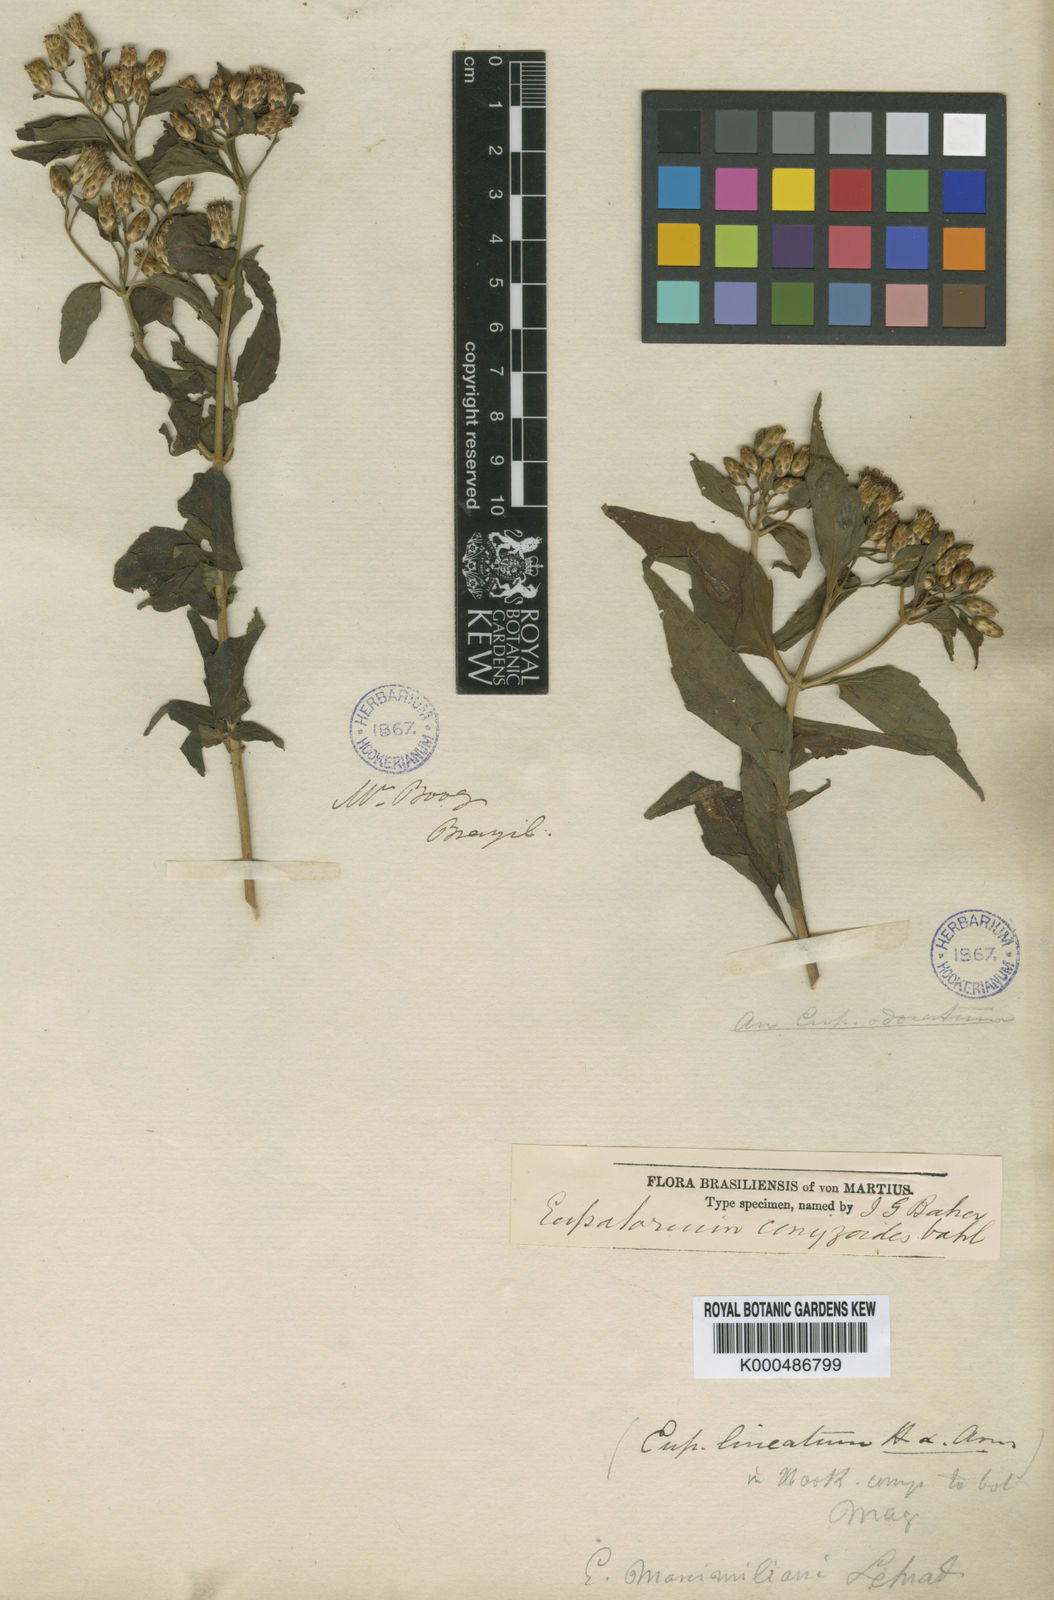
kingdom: Plantae
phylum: Tracheophyta
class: Magnoliopsida
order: Asterales
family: Asteraceae
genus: Chromolaena
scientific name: Chromolaena maximiliani
